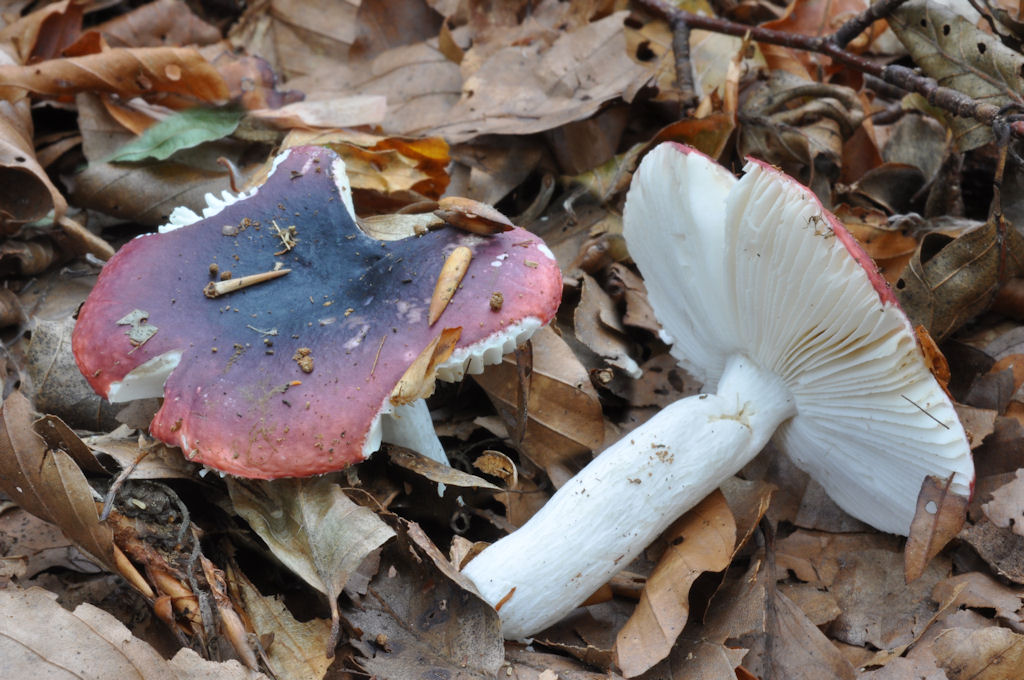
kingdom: Fungi
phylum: Basidiomycota
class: Agaricomycetes
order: Russulales
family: Russulaceae
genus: Russula
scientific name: Russula atropurpurea
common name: purpurbroget skørhat
